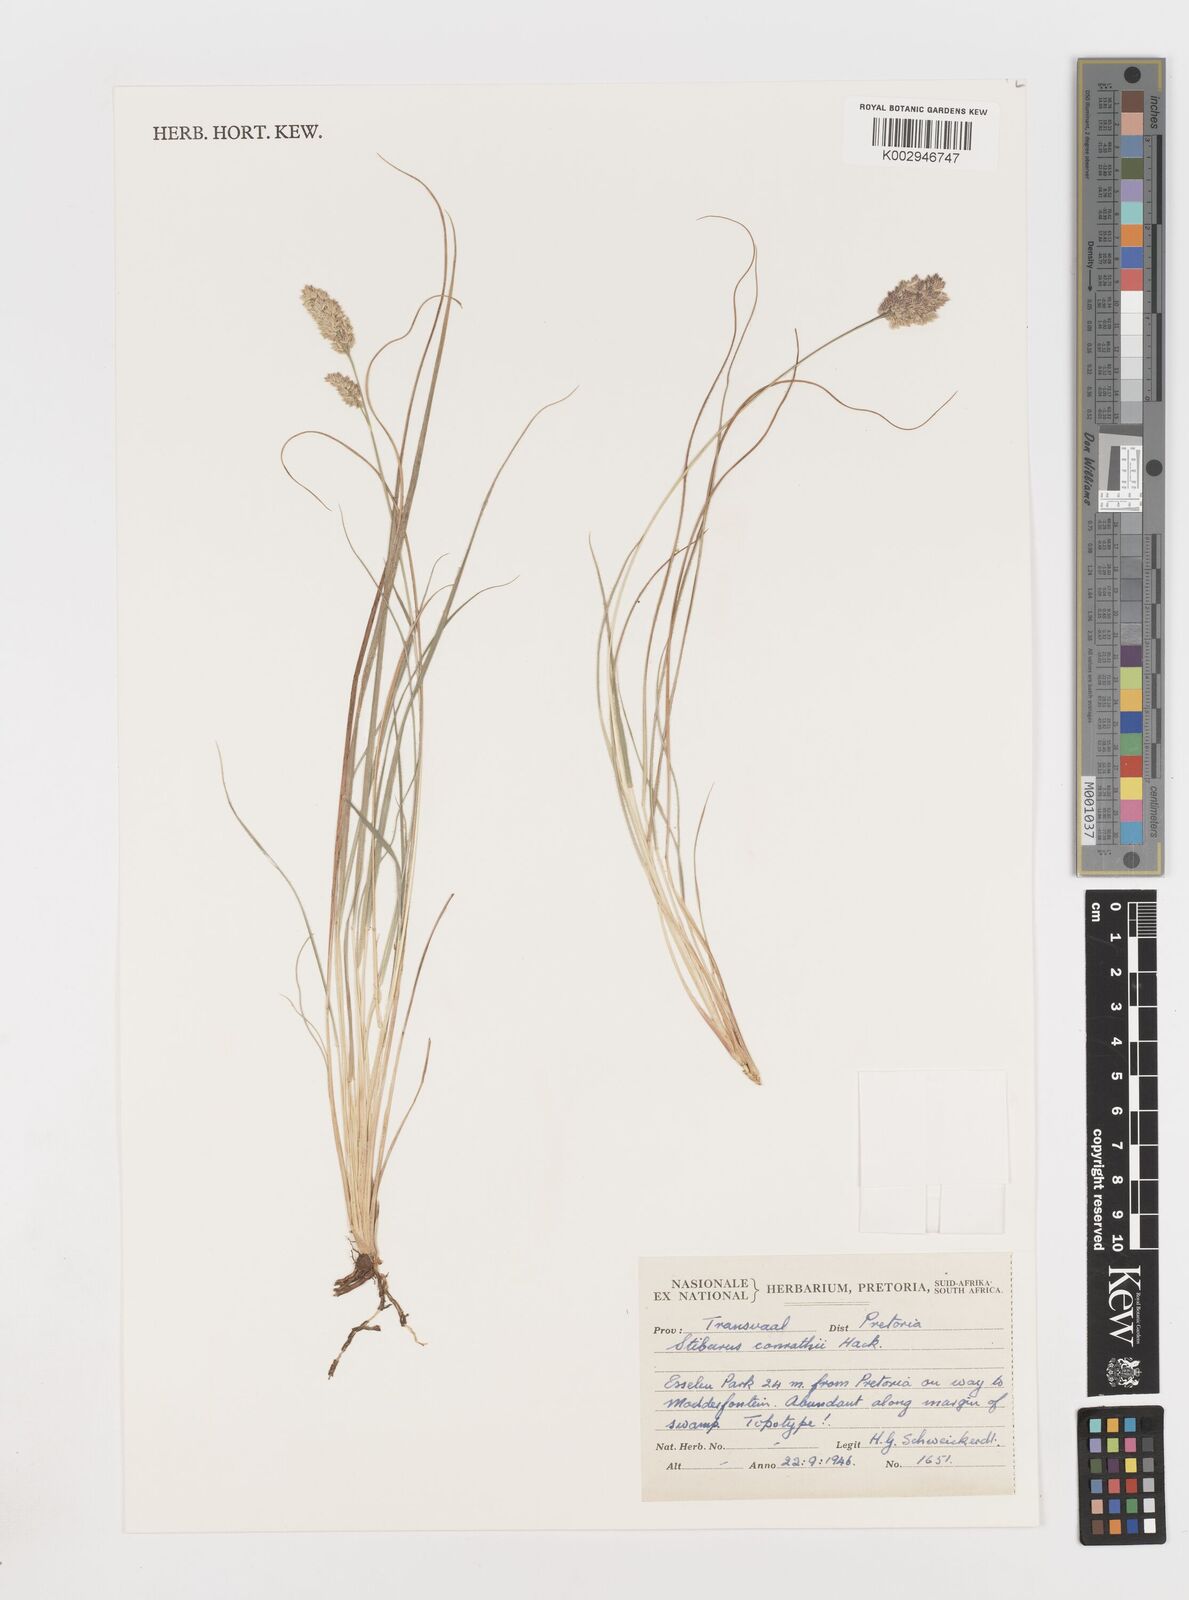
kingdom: Plantae
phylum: Tracheophyta
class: Liliopsida
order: Poales
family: Poaceae
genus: Stiburus
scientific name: Stiburus conrathii
